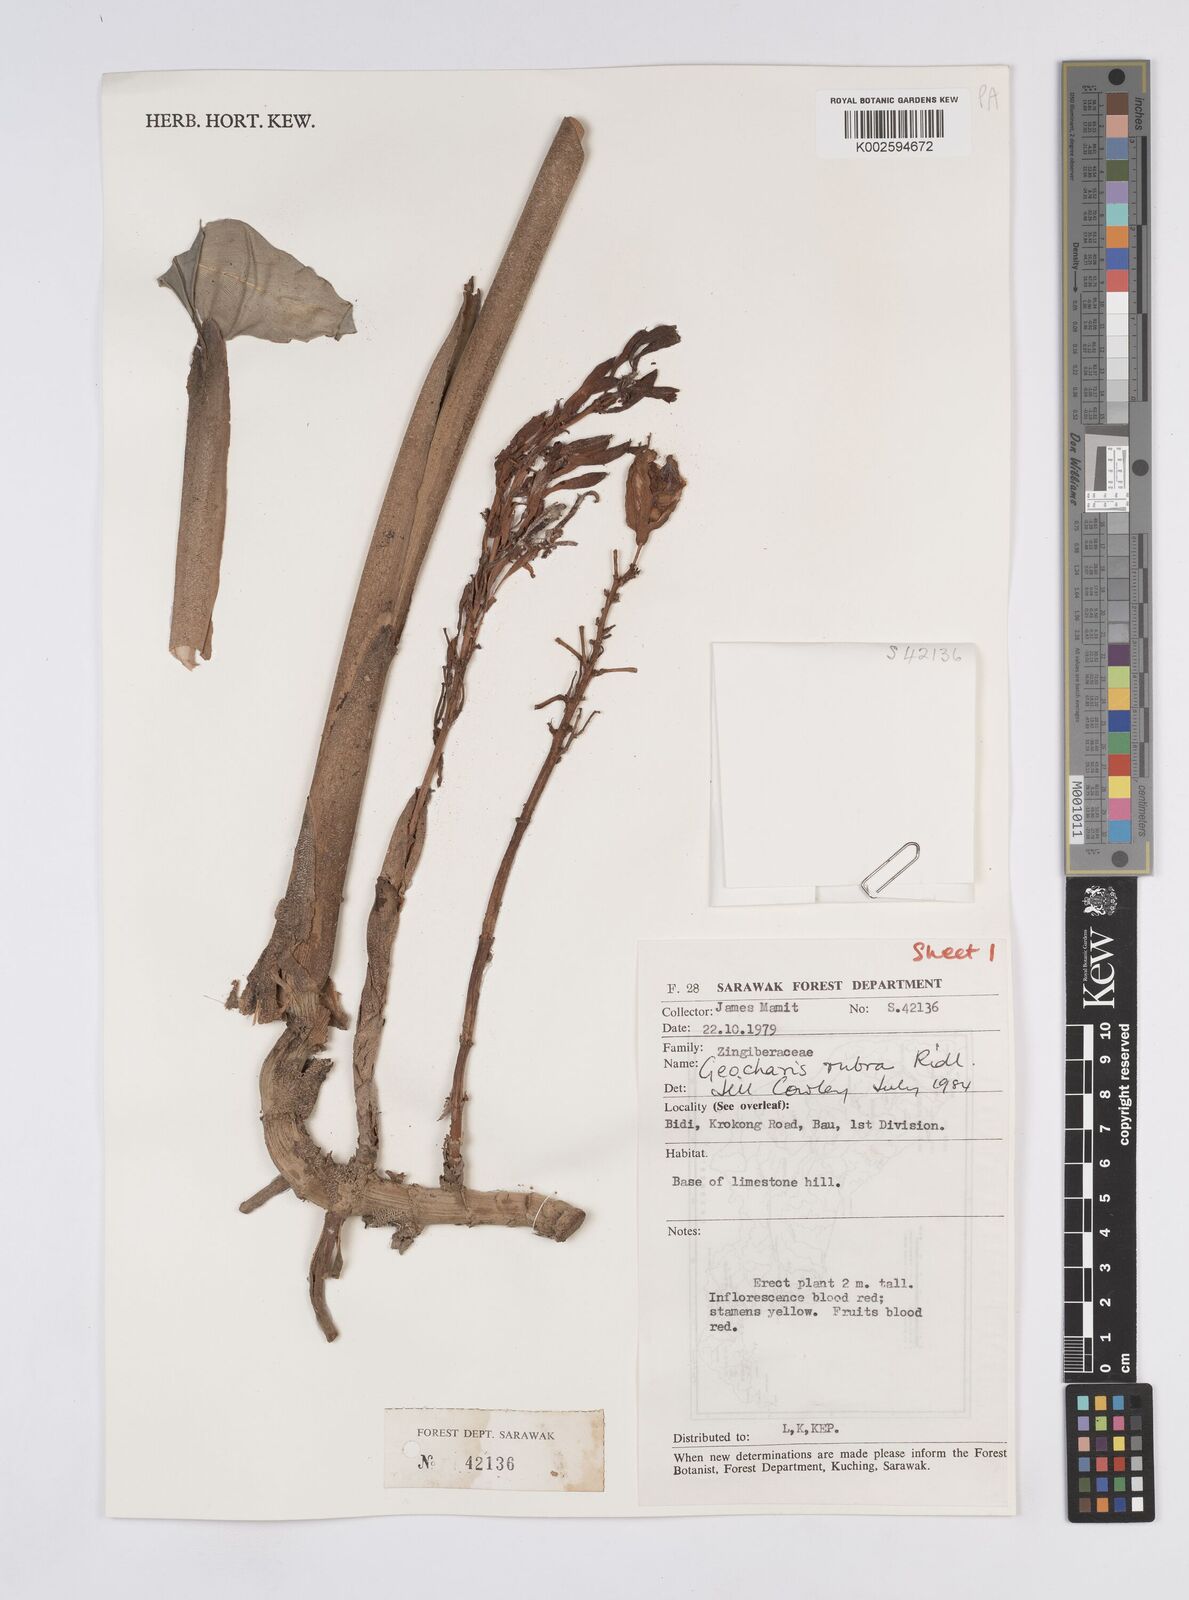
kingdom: Plantae
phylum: Tracheophyta
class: Liliopsida
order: Zingiberales
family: Zingiberaceae
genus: Geocharis
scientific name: Geocharis rubra
